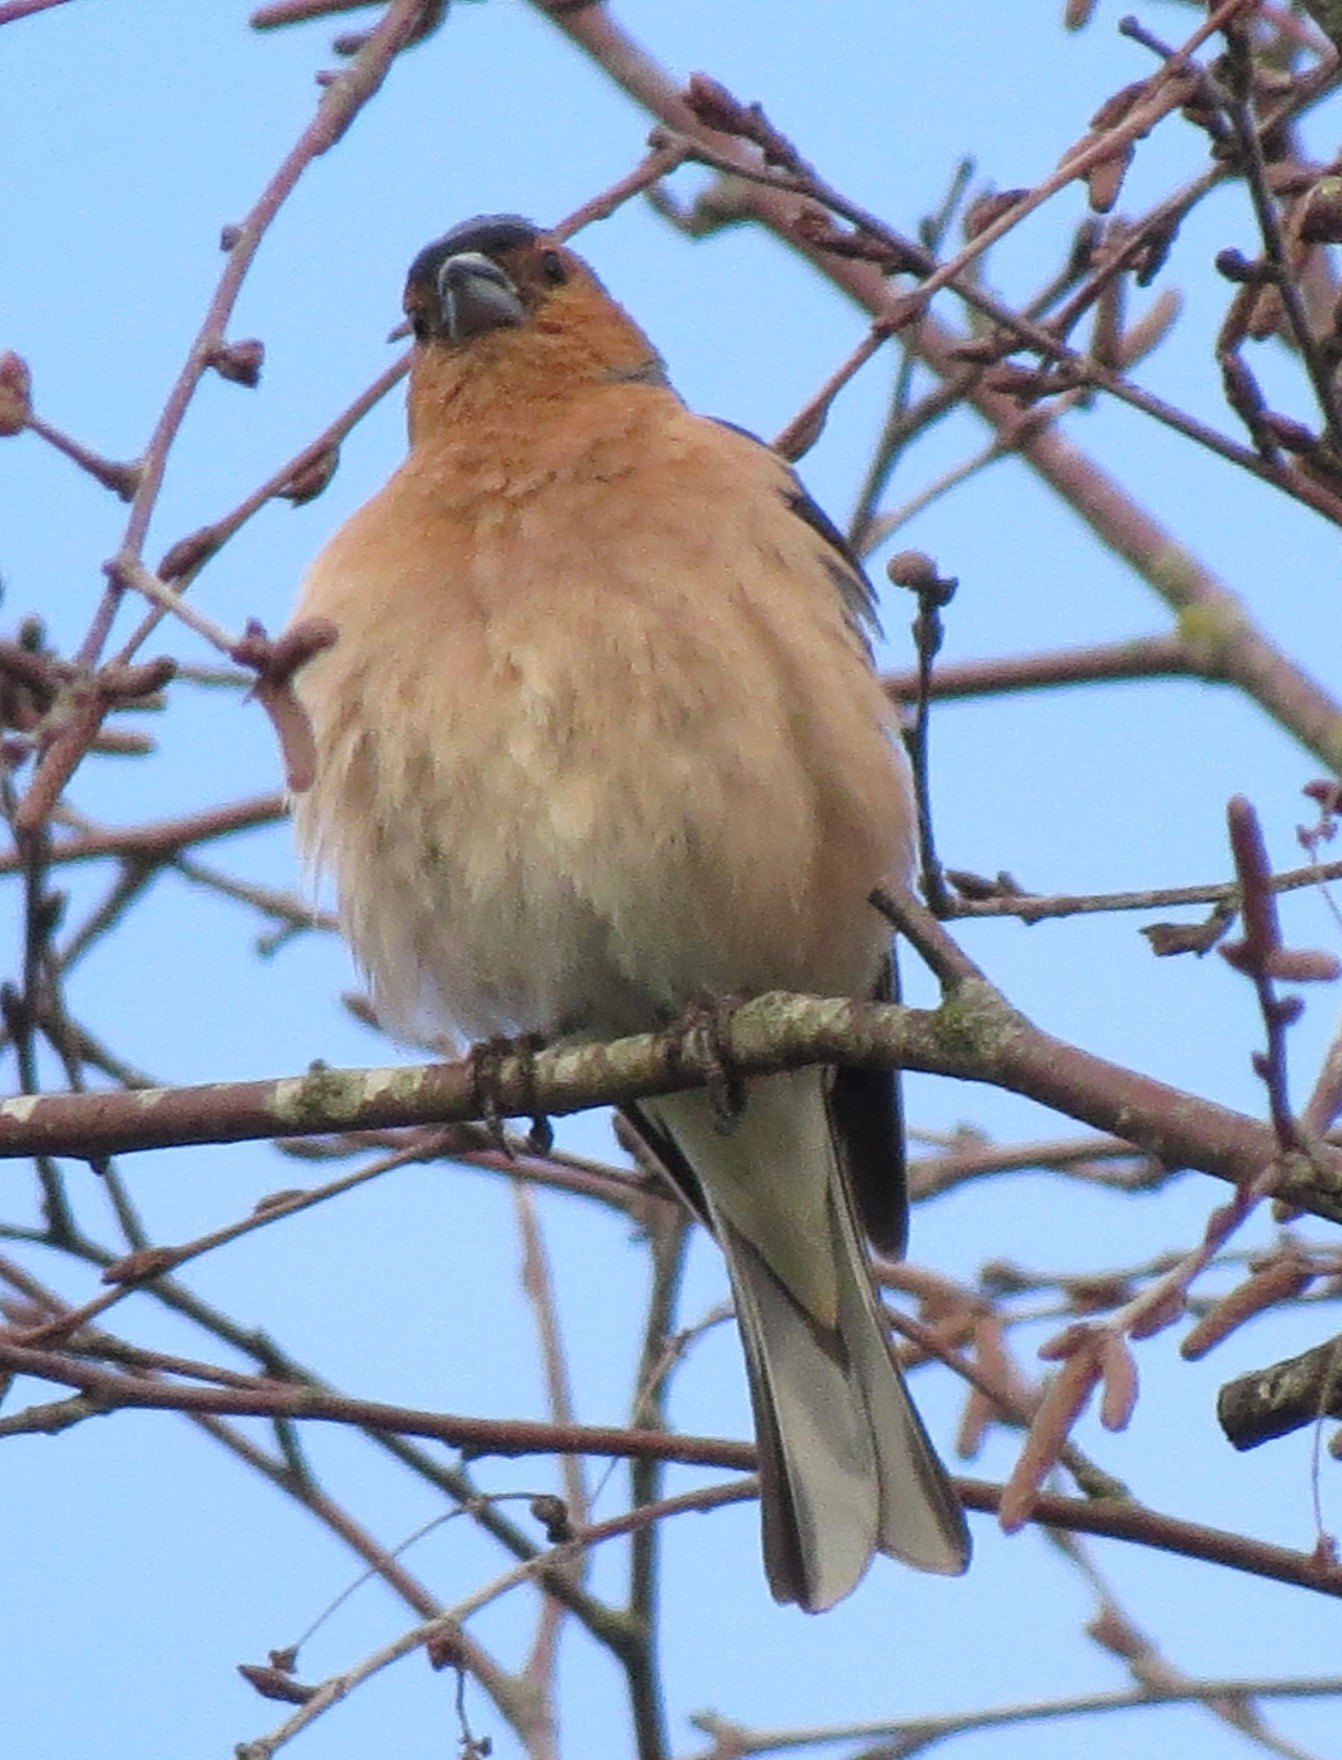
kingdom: Animalia
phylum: Chordata
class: Aves
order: Passeriformes
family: Fringillidae
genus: Fringilla
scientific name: Fringilla coelebs
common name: Bogfinke
